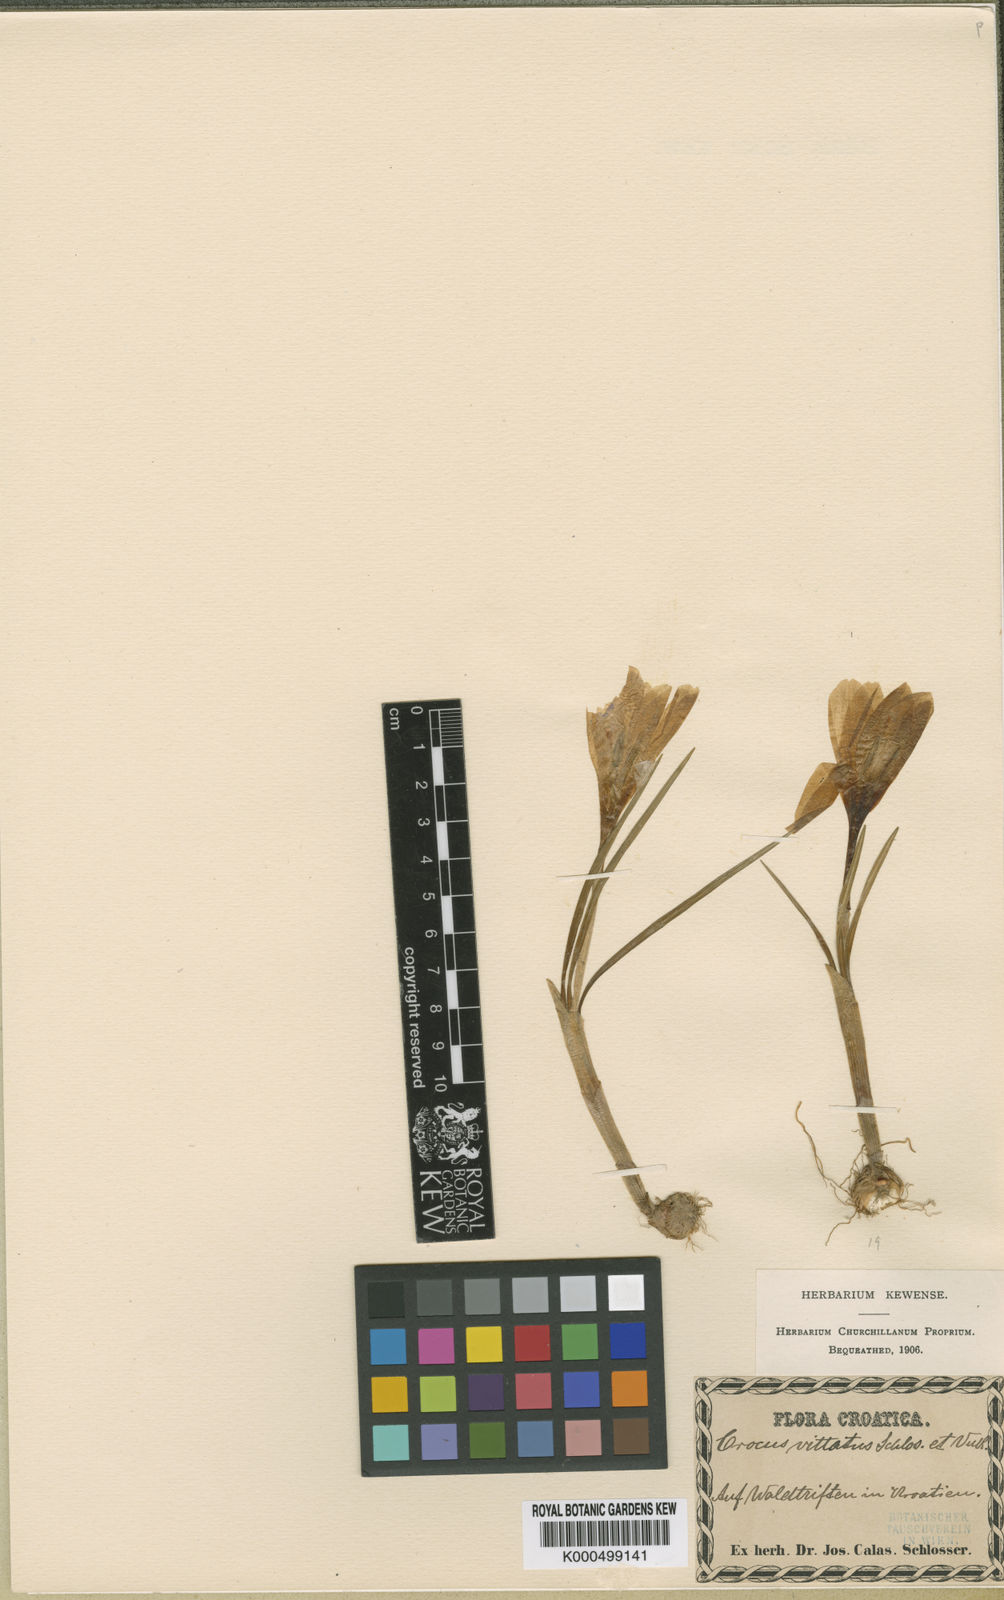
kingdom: Plantae
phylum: Tracheophyta
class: Liliopsida
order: Asparagales
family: Iridaceae
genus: Crocus
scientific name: Crocus
